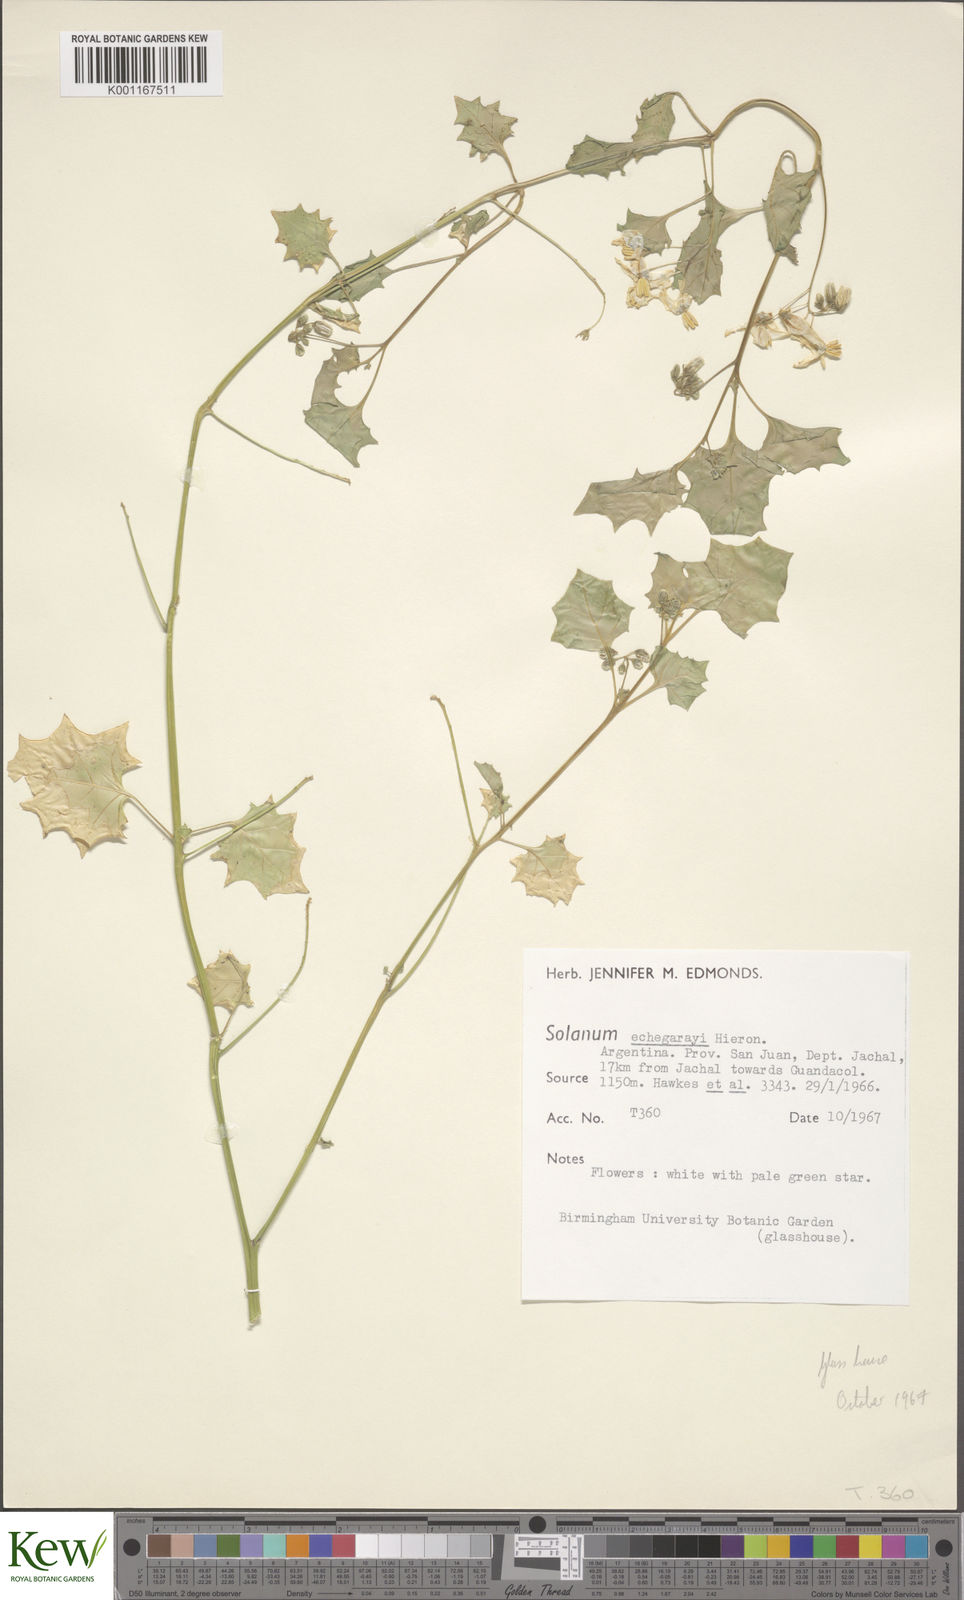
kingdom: Plantae
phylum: Tracheophyta
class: Magnoliopsida
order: Solanales
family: Solanaceae
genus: Solanum
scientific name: Solanum echegarayi
